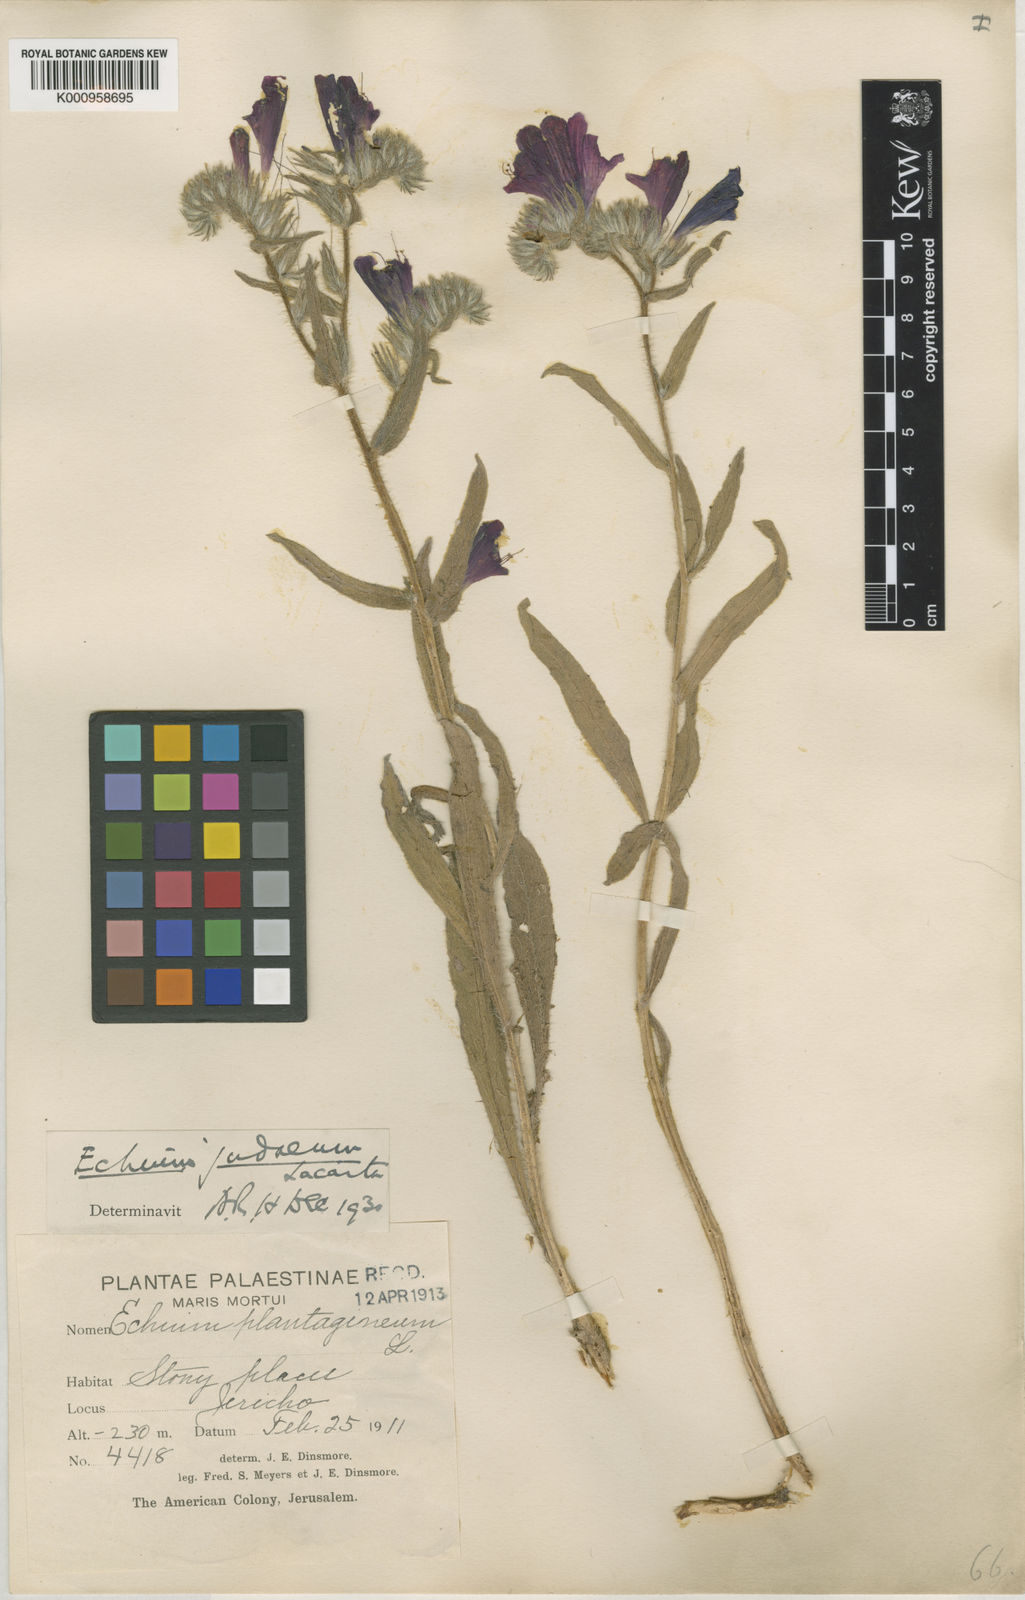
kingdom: Plantae
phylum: Tracheophyta
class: Magnoliopsida
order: Boraginales
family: Boraginaceae
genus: Echium
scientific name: Echium judaeum
